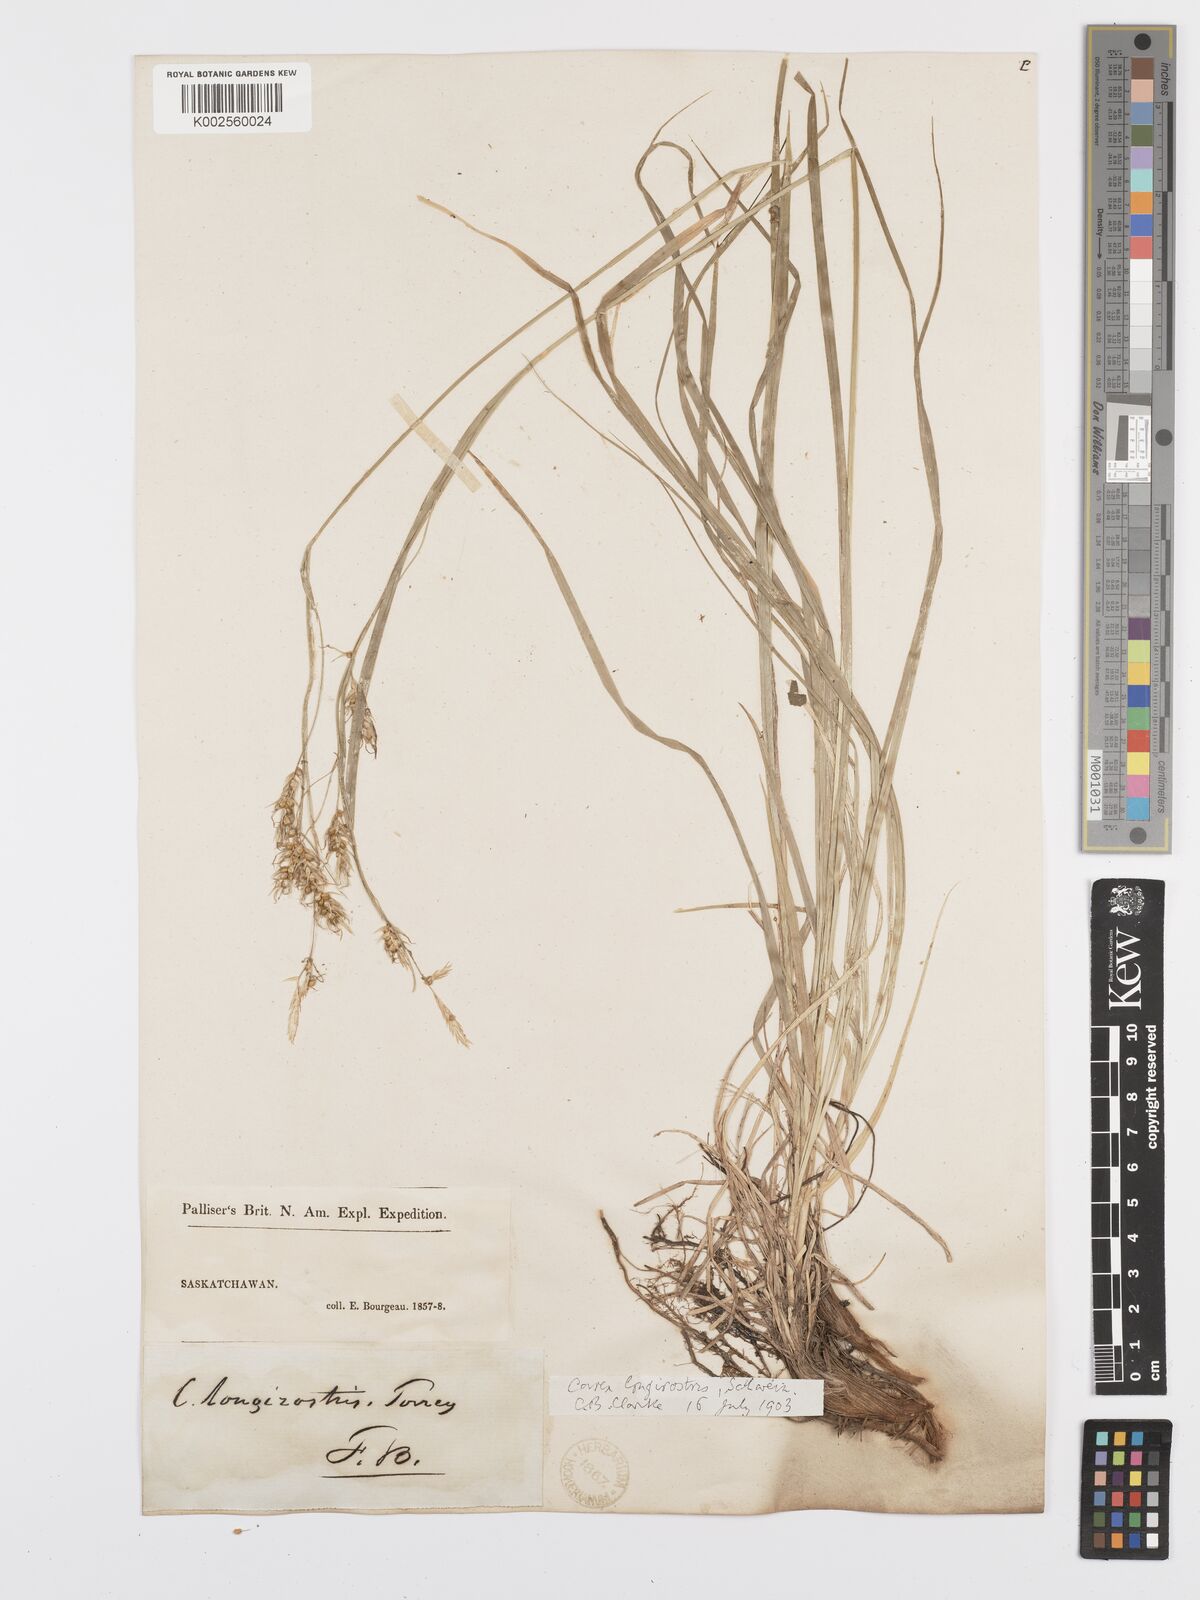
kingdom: Plantae
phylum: Tracheophyta
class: Liliopsida
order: Poales
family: Cyperaceae
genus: Carex
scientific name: Carex sprengelii
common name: Long-beaked sedge
